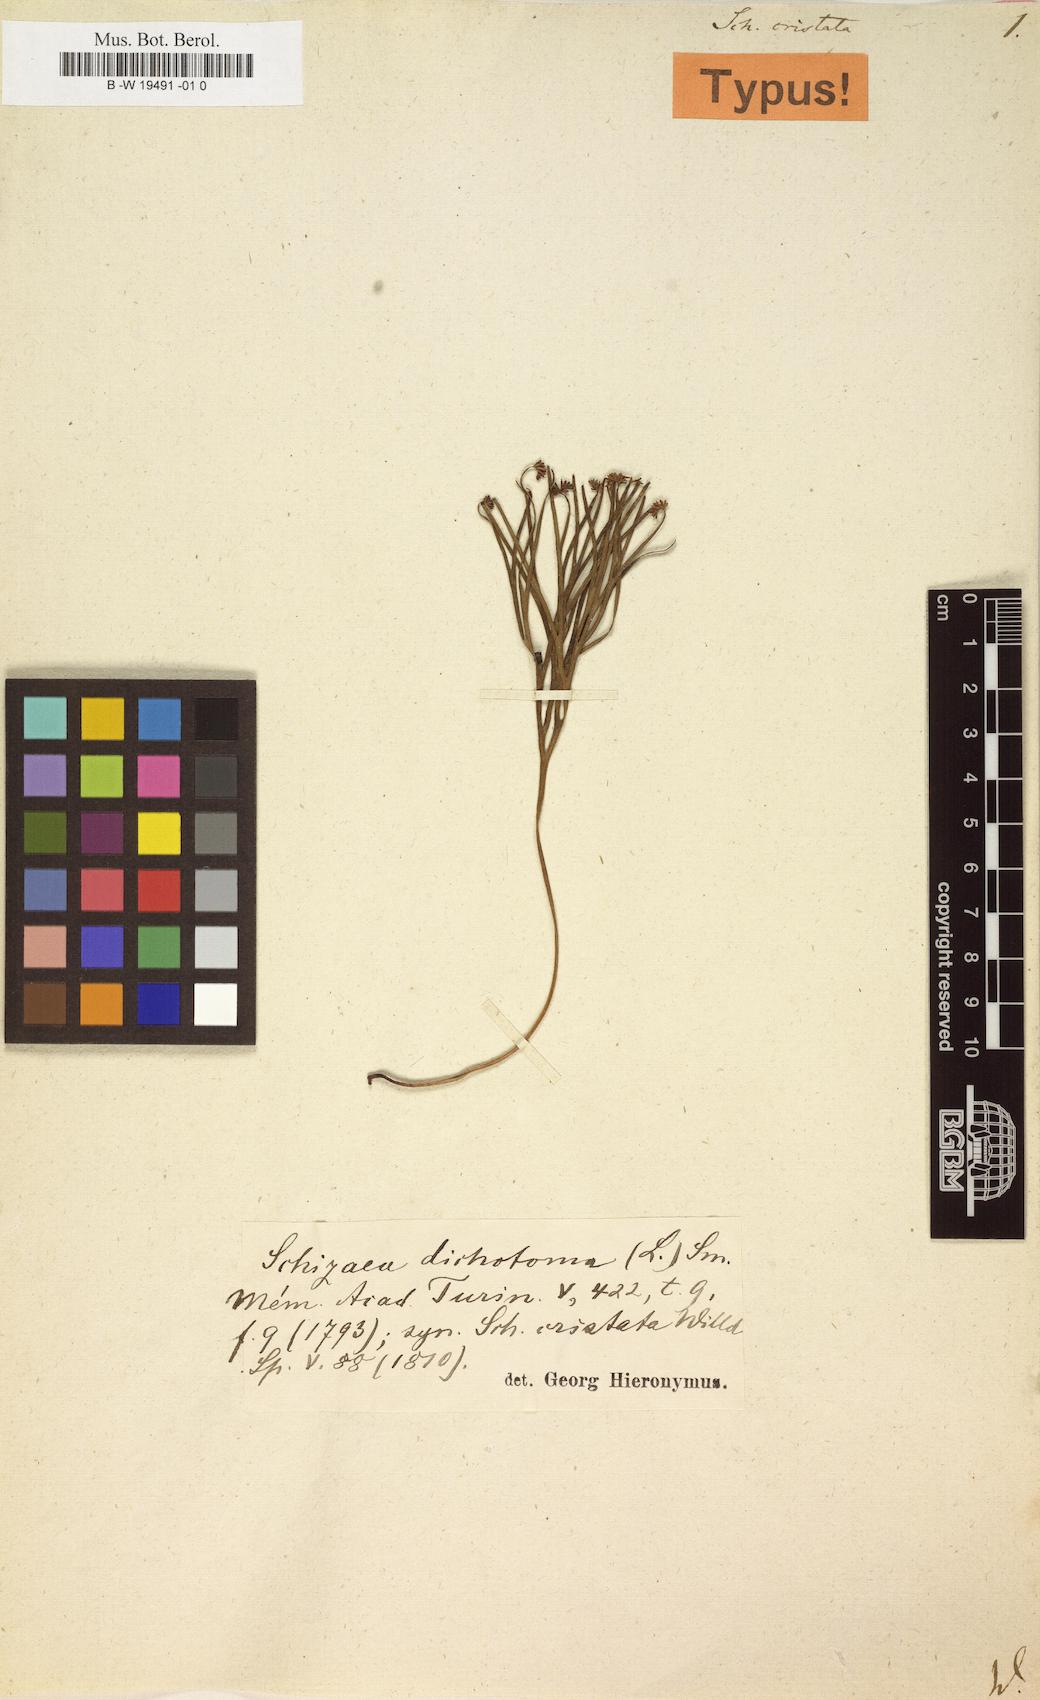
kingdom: Plantae
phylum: Tracheophyta
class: Polypodiopsida
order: Schizaeales
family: Schizaeaceae
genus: Schizaea
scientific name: Schizaea dichotoma
